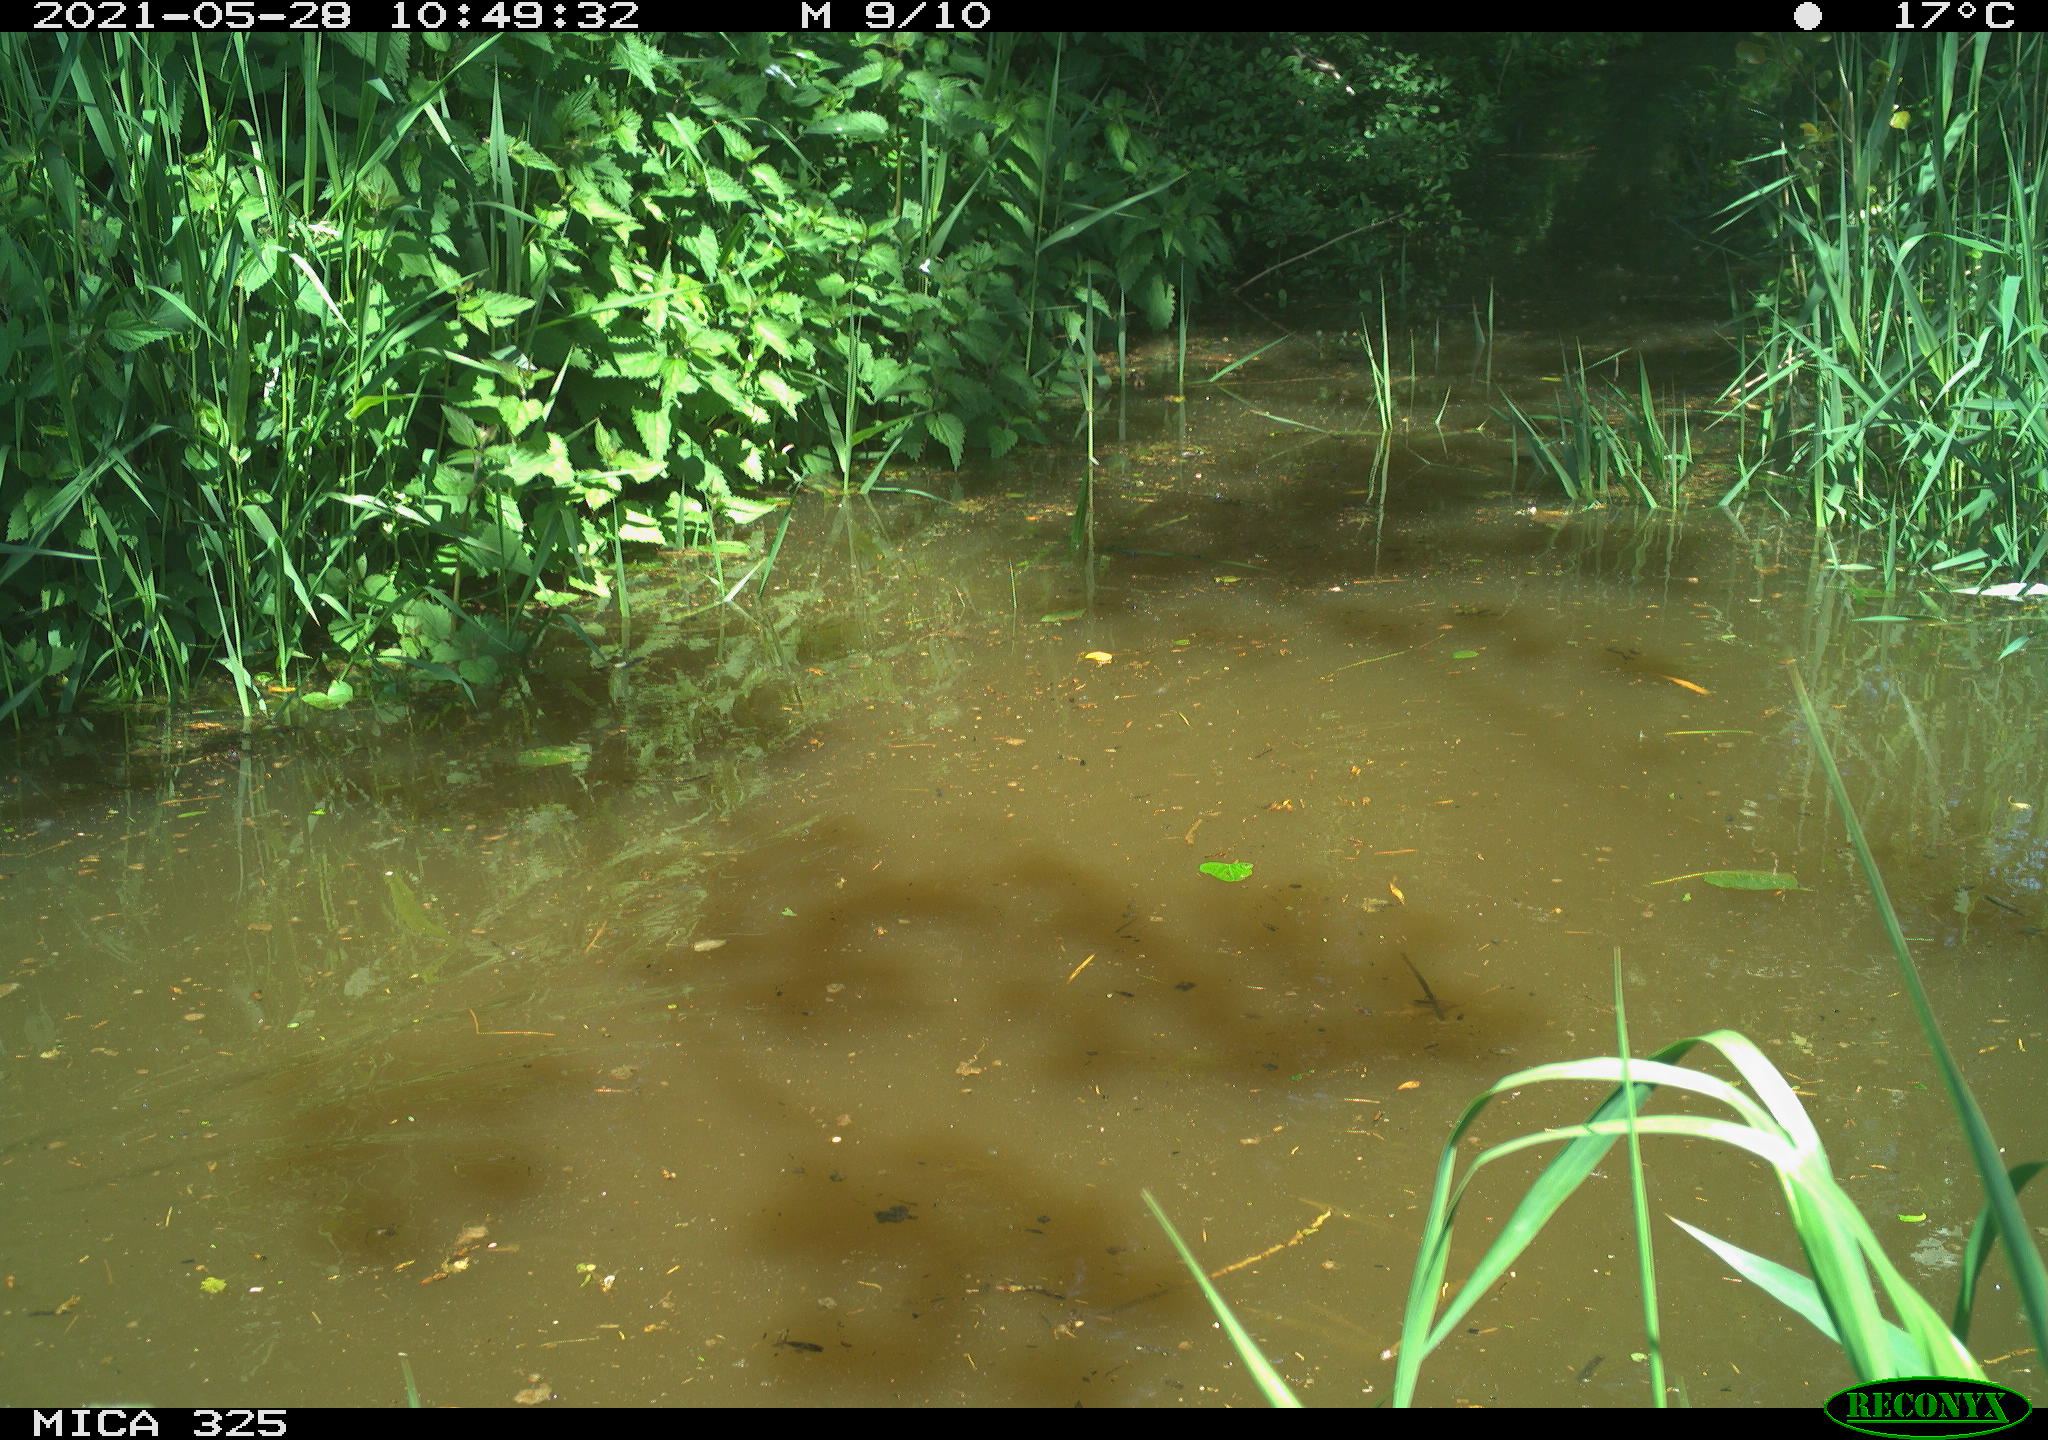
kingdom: Animalia
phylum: Chordata
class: Mammalia
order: Rodentia
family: Cricetidae
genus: Ondatra
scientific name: Ondatra zibethicus
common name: Muskrat
